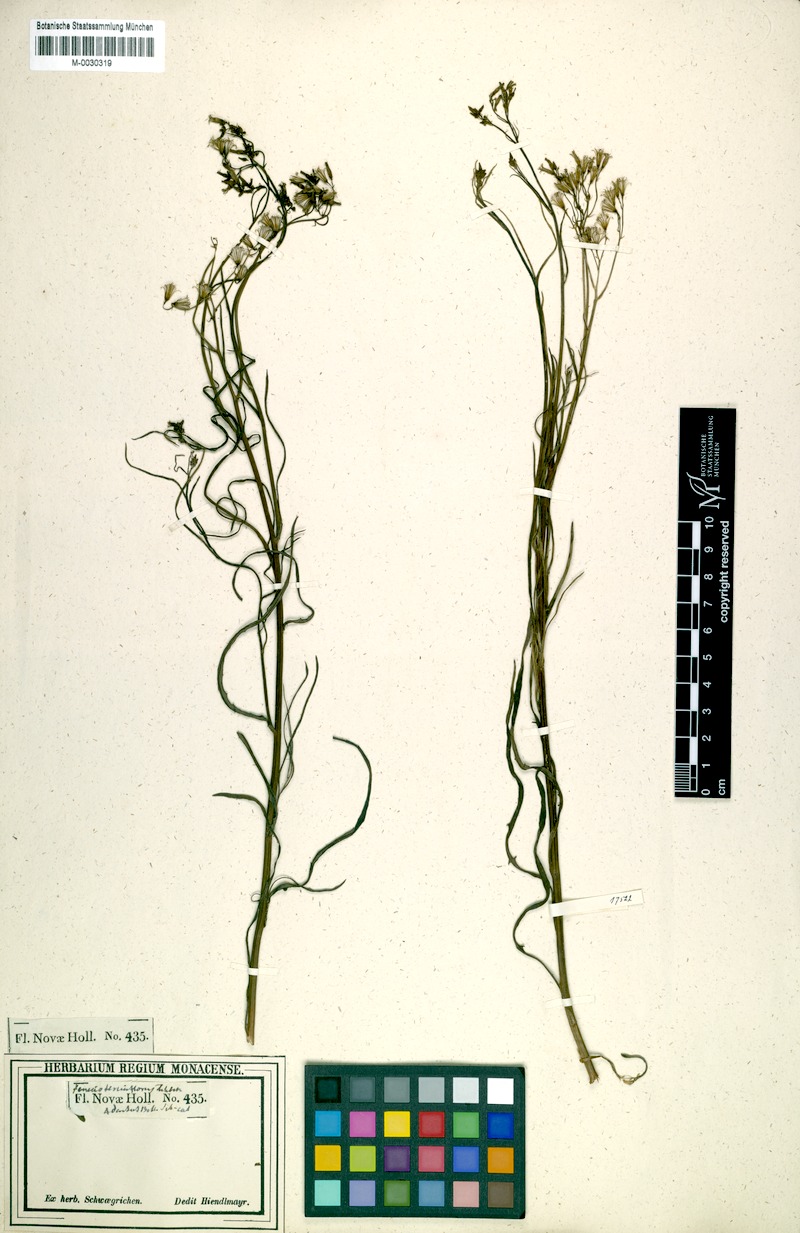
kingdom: Plantae
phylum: Tracheophyta
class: Magnoliopsida
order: Asterales
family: Asteraceae
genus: Senecio
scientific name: Senecio tenuiflorus
